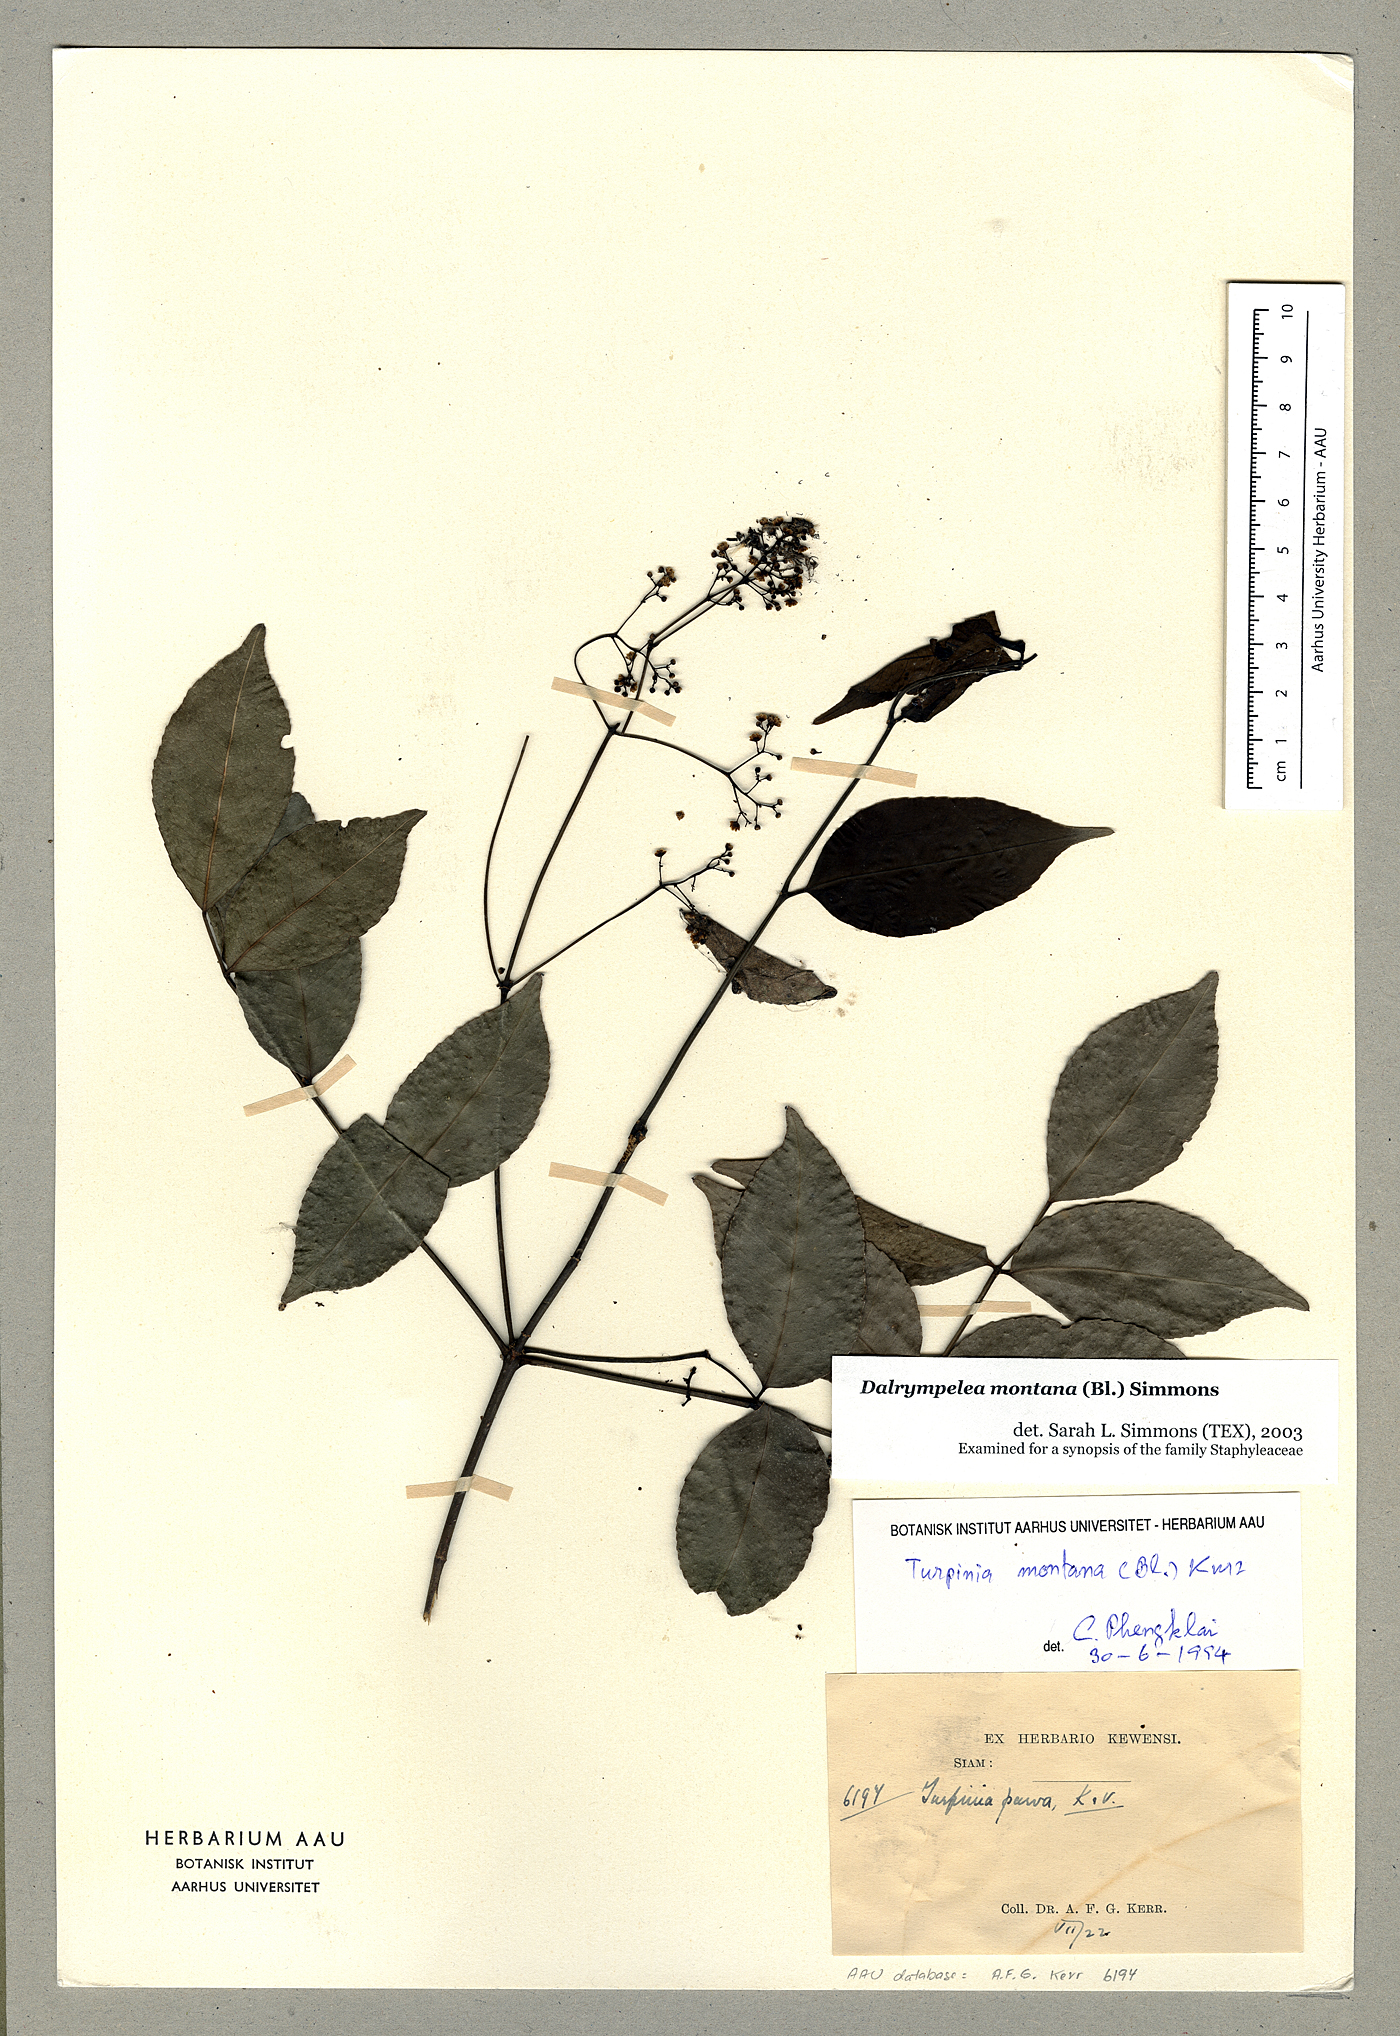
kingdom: Plantae
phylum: Tracheophyta
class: Magnoliopsida
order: Crossosomatales
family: Staphyleaceae
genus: Turpinia
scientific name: Turpinia montana
